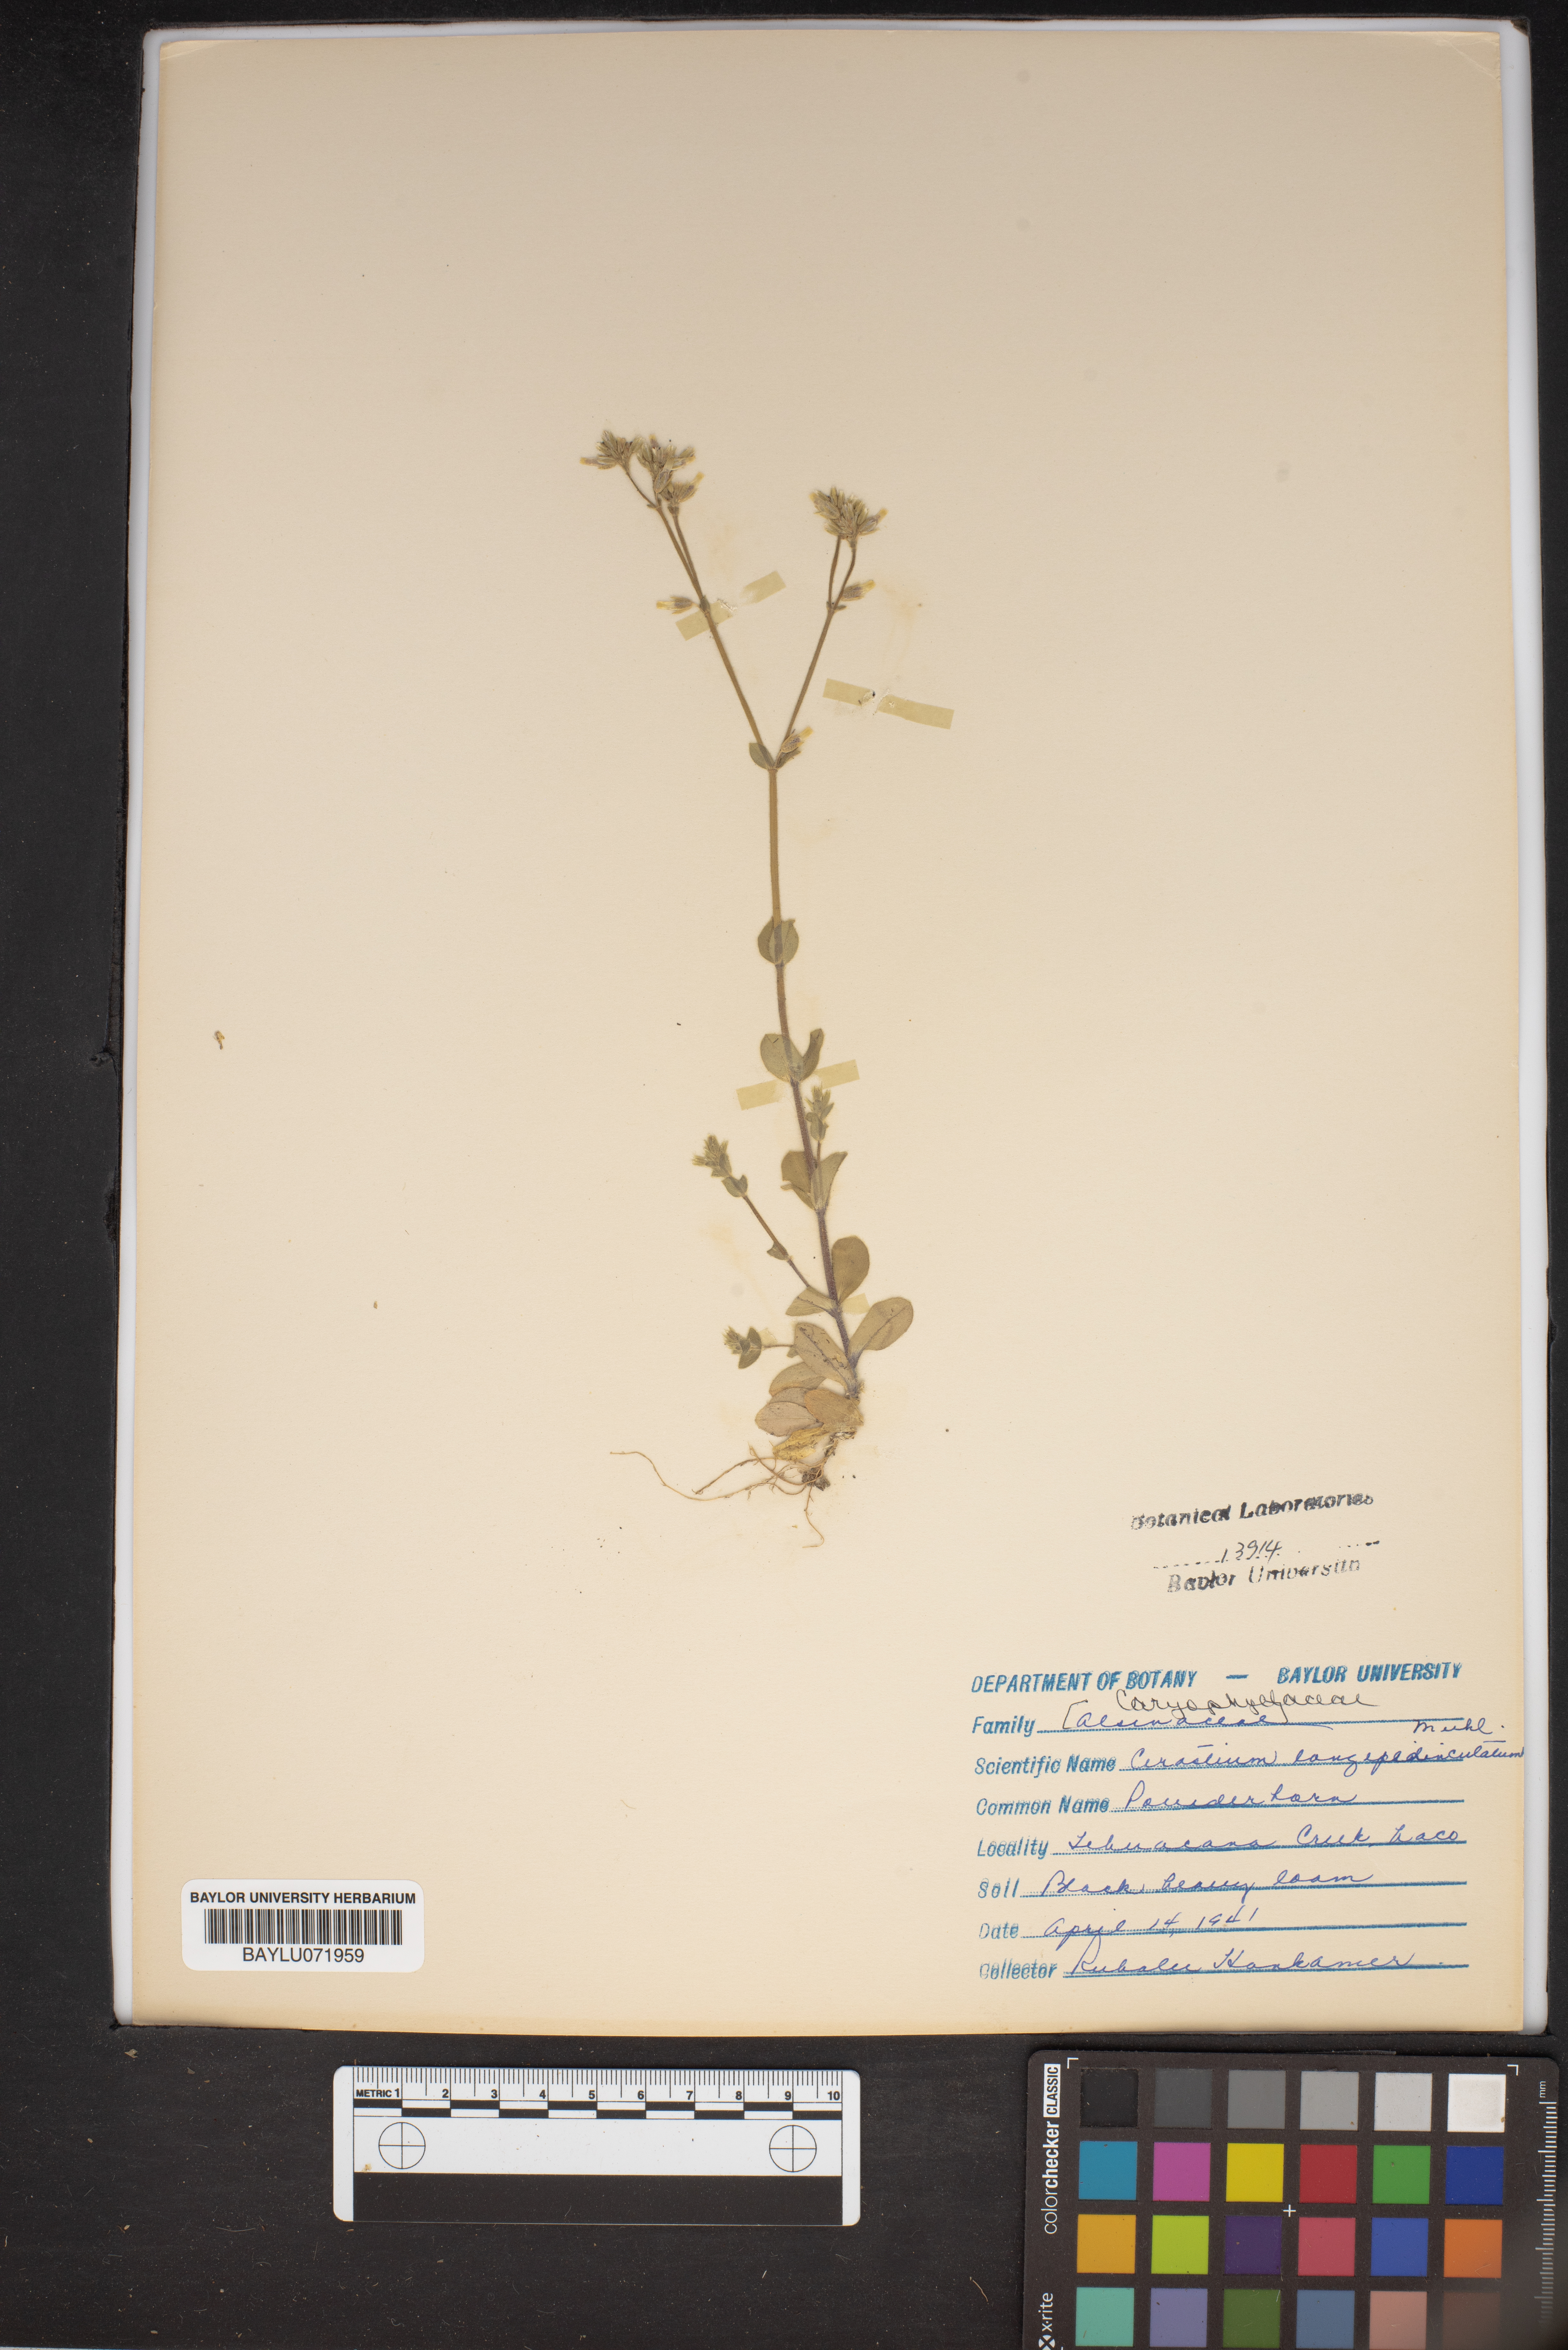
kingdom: Plantae
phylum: Tracheophyta
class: Magnoliopsida
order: Caryophyllales
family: Caryophyllaceae
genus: Cerastium
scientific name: Cerastium nutans
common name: Long-stalked chickweed
